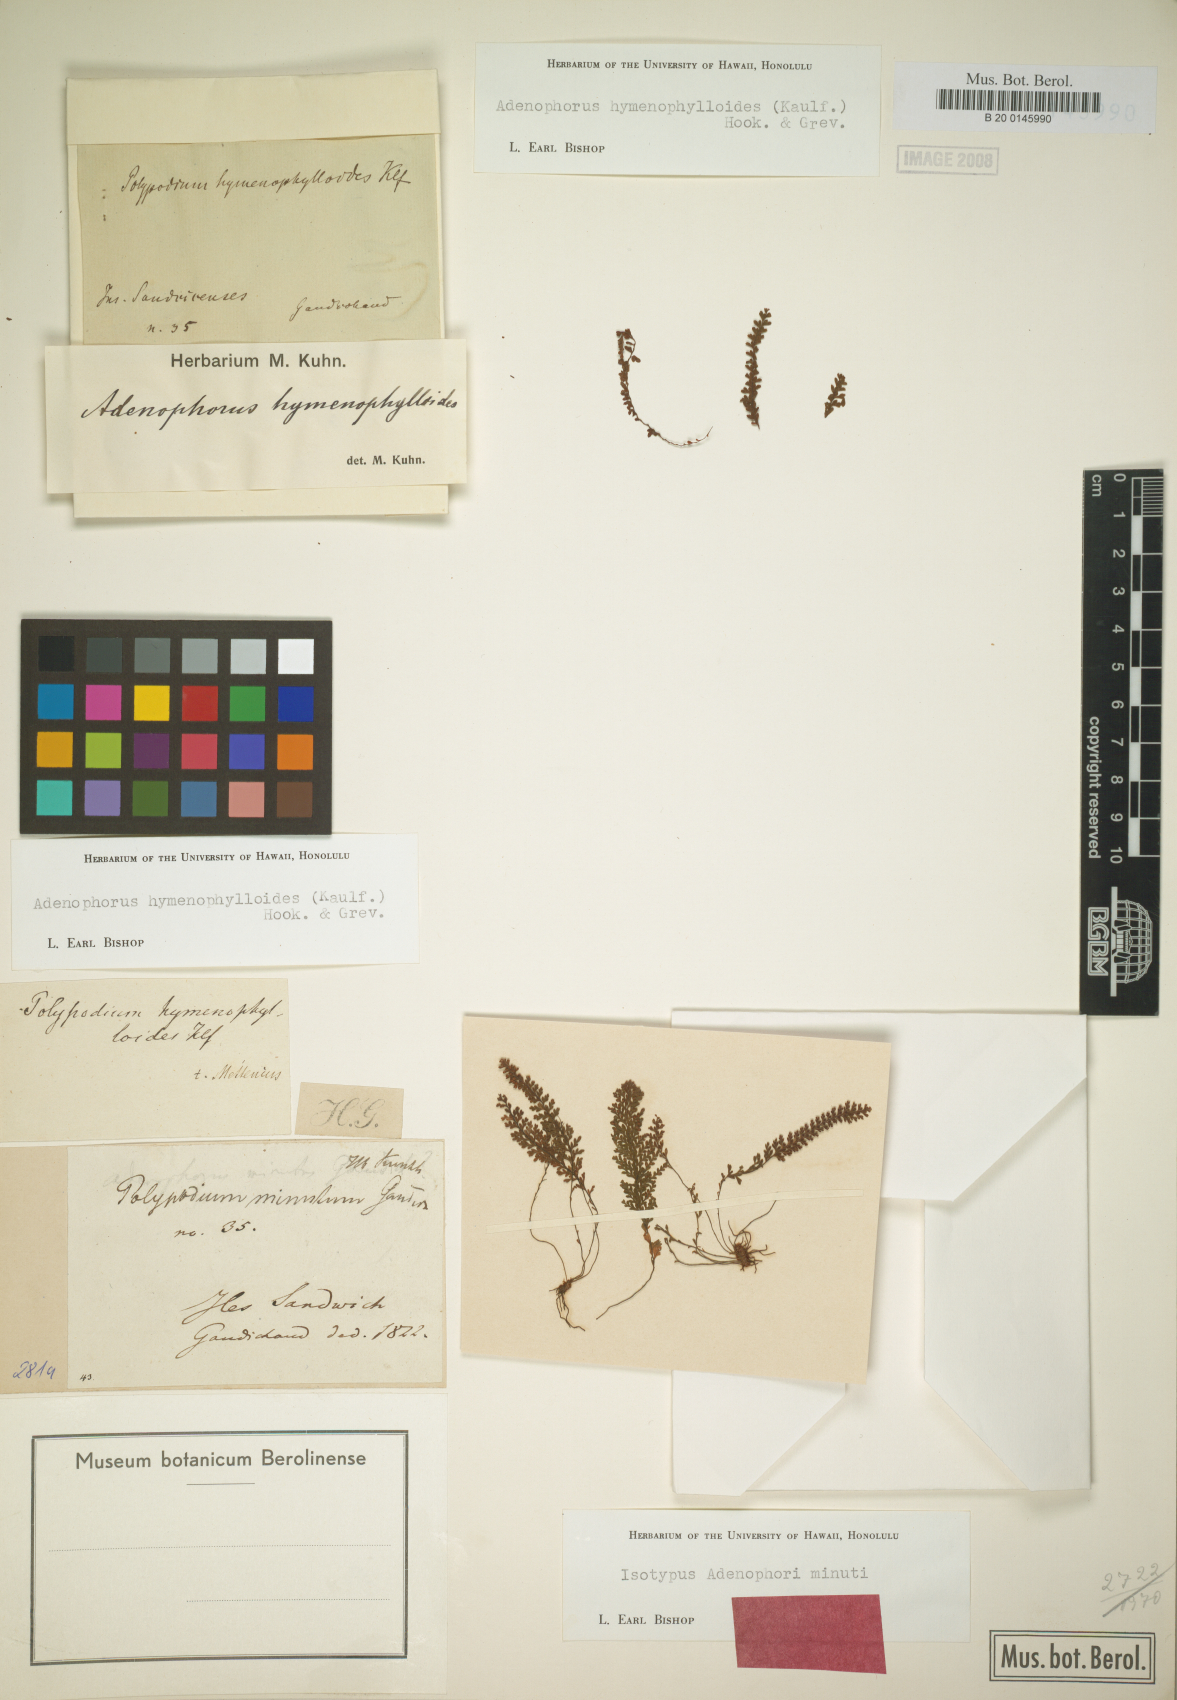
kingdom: Plantae
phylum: Tracheophyta
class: Polypodiopsida
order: Polypodiales
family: Polypodiaceae
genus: Adenophorus
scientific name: Adenophorus hymenophylloides
